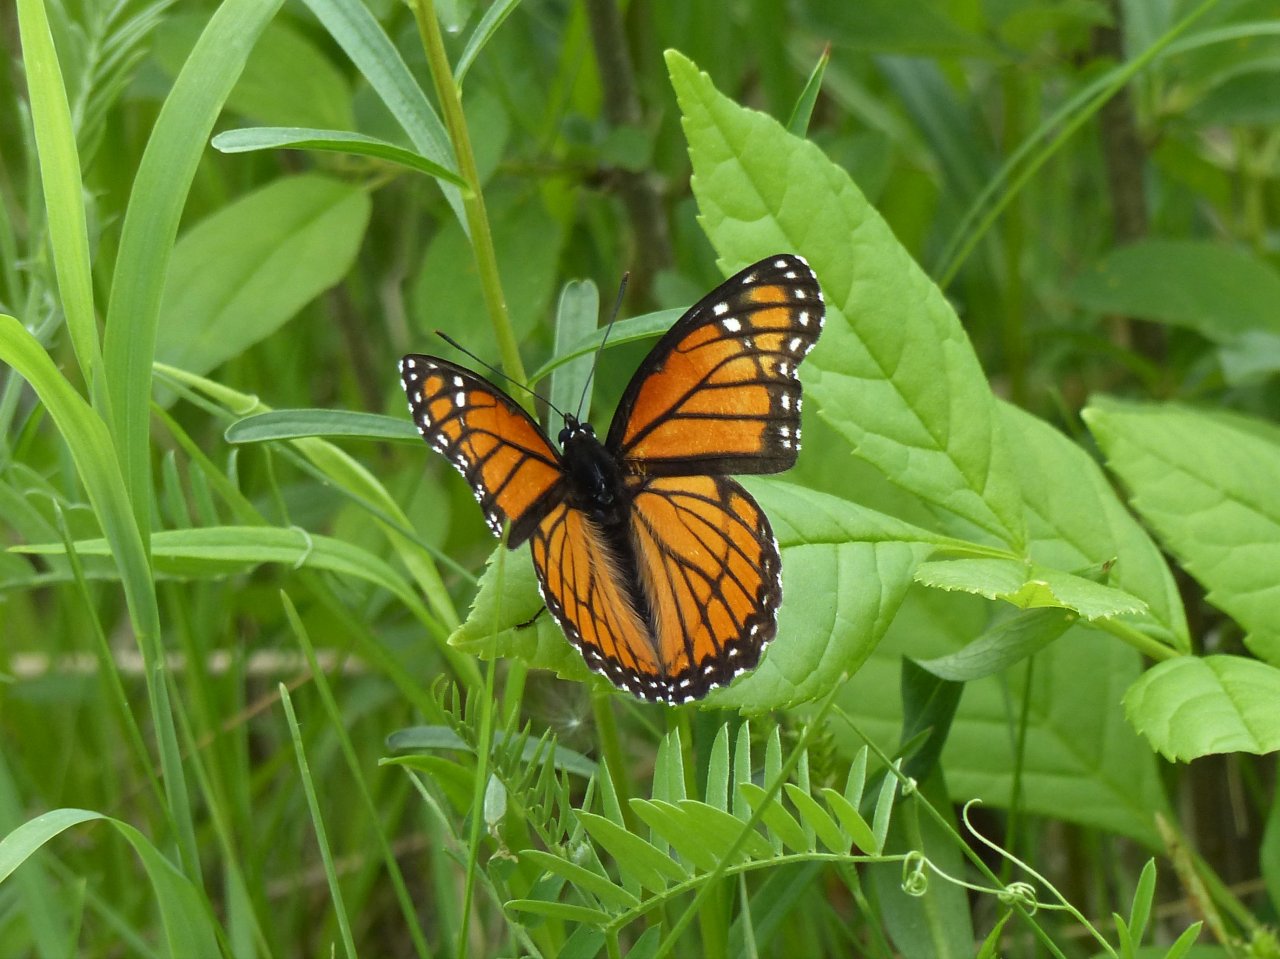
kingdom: Animalia
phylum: Arthropoda
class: Insecta
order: Lepidoptera
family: Nymphalidae
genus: Limenitis
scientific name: Limenitis archippus
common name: Viceroy
